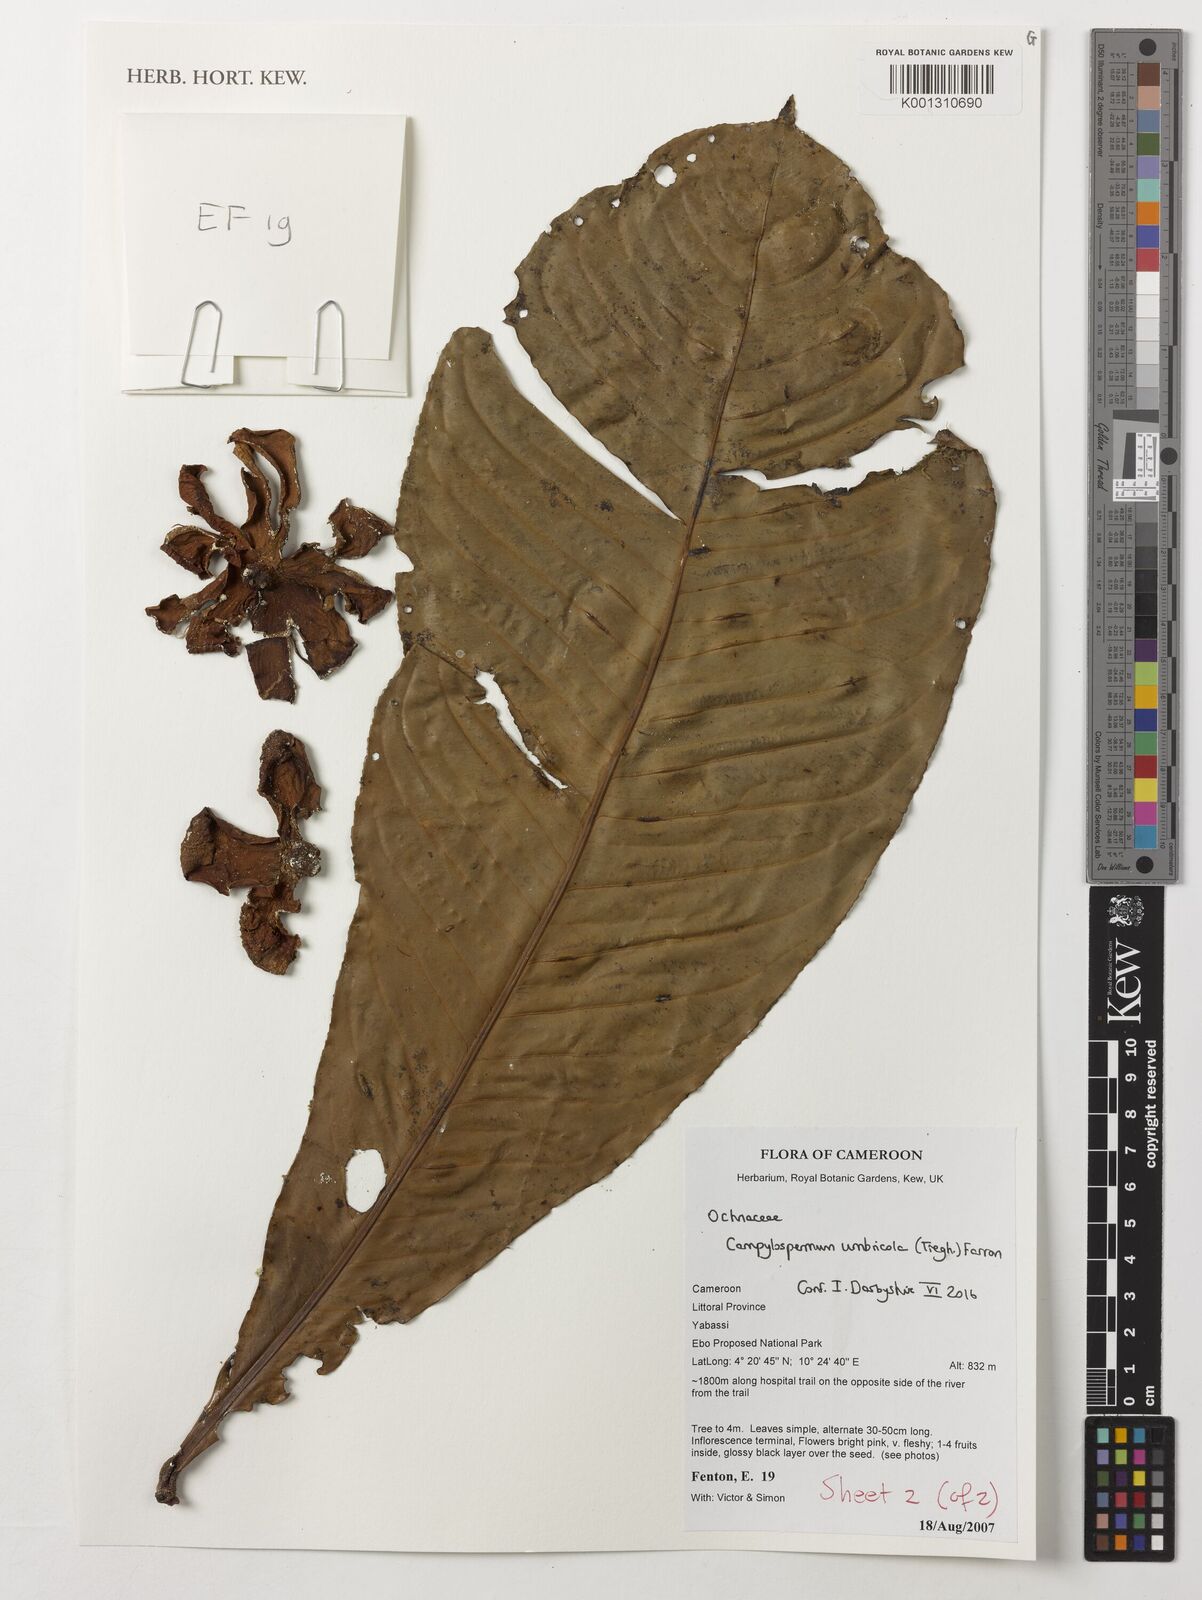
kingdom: Plantae
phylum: Tracheophyta
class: Magnoliopsida
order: Malpighiales
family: Ochnaceae
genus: Campylospermum
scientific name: Campylospermum umbricola
